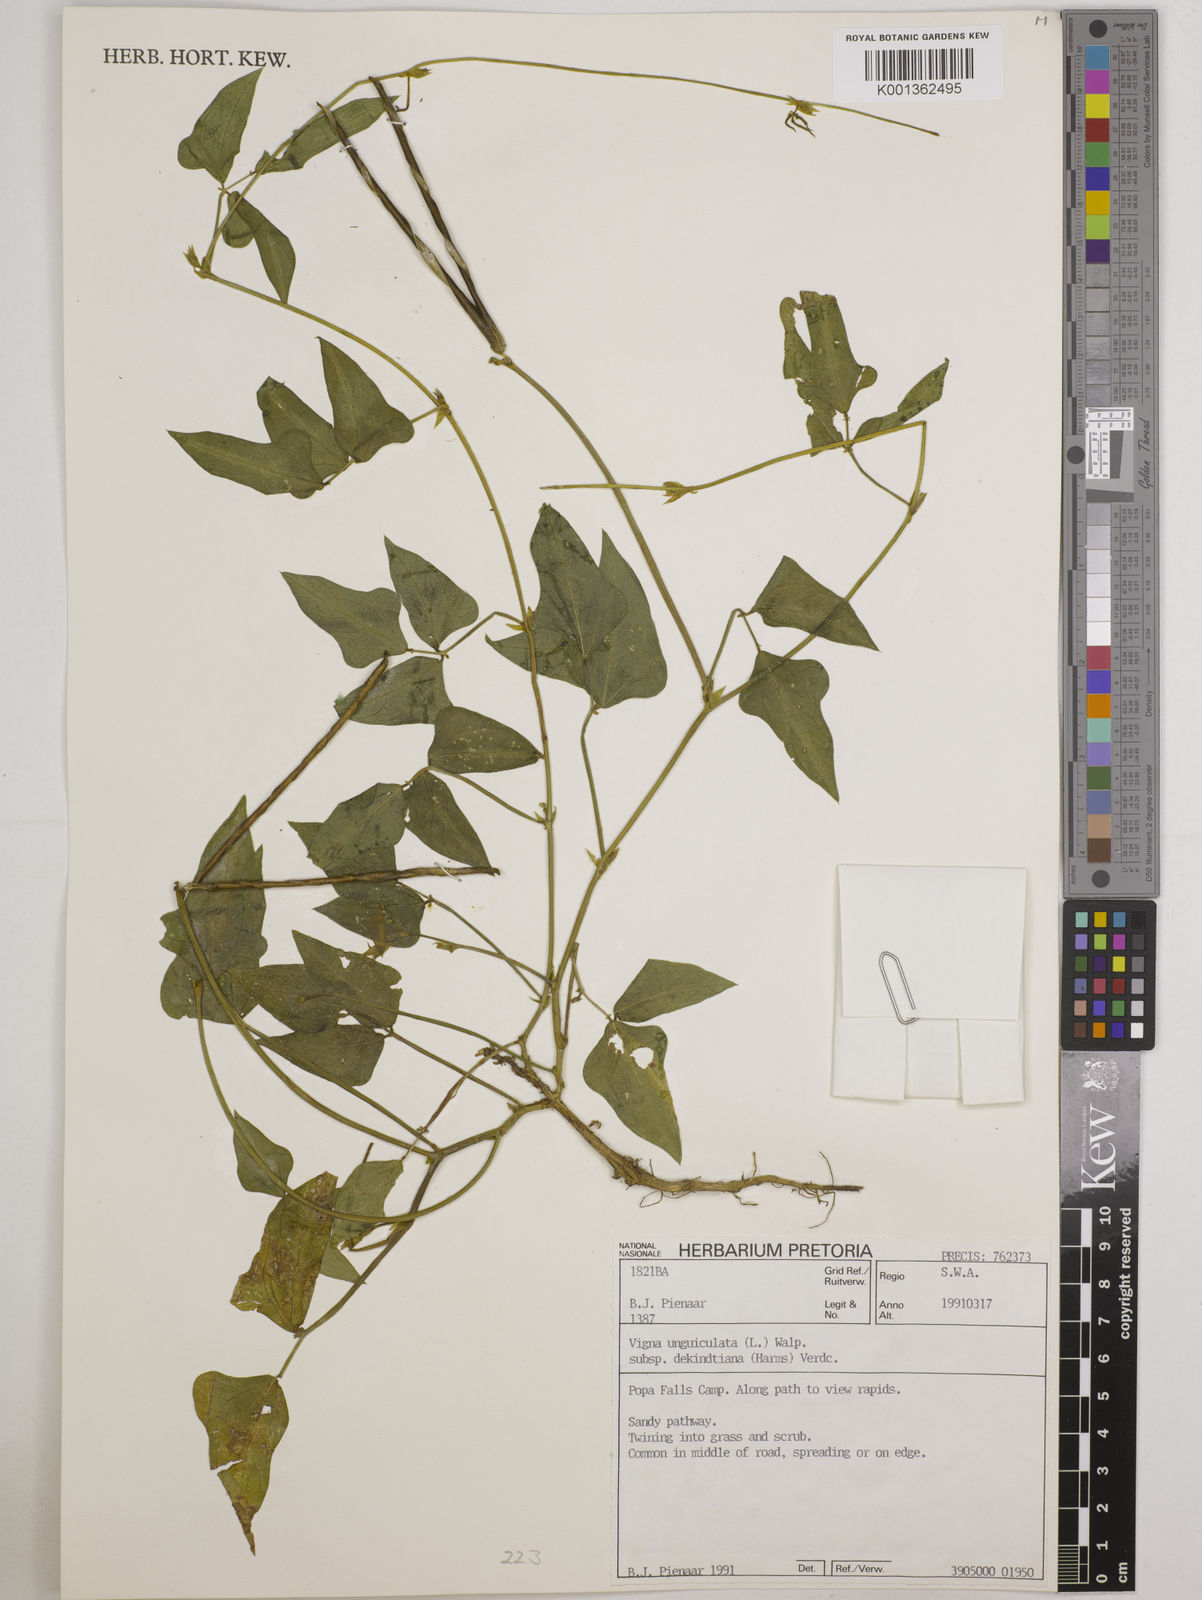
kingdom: Plantae
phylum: Tracheophyta
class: Magnoliopsida
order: Fabales
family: Fabaceae
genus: Vigna
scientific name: Vigna
